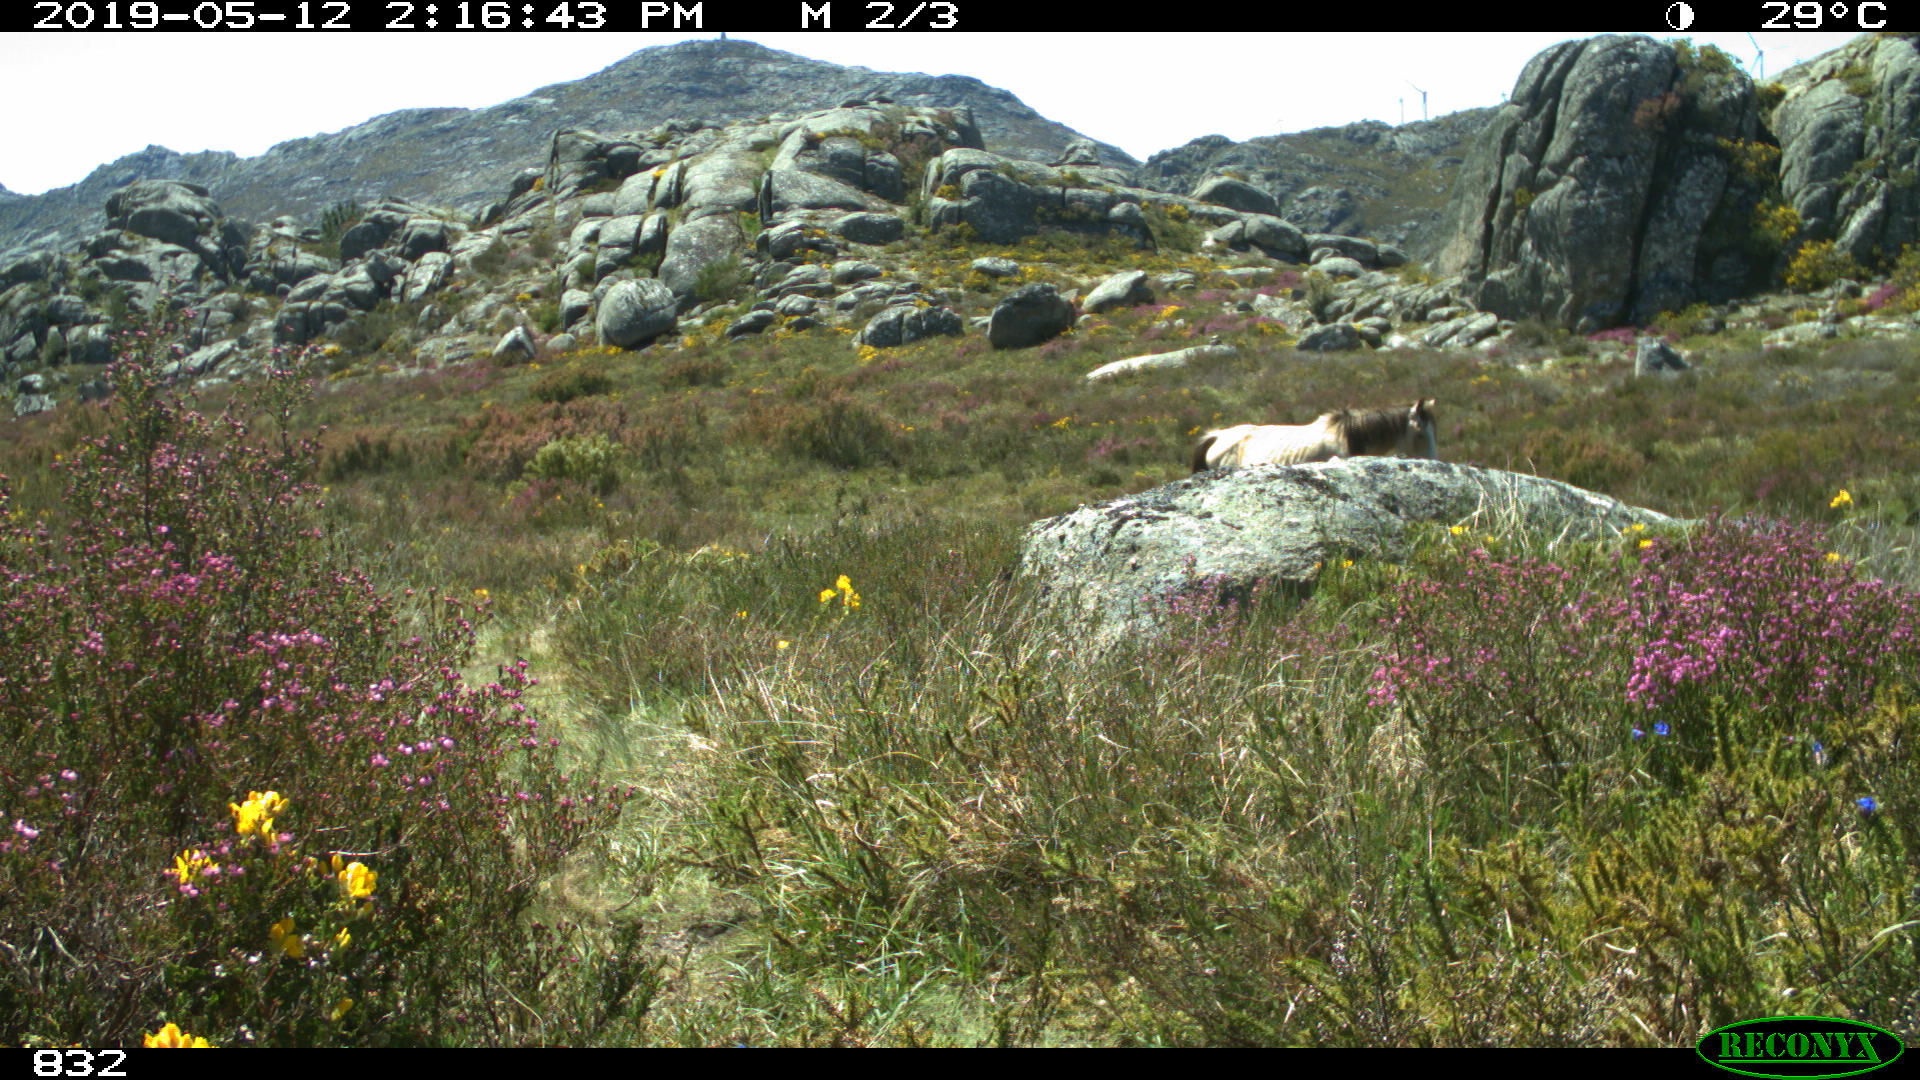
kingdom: Animalia
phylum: Chordata
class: Mammalia
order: Perissodactyla
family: Equidae
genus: Equus
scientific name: Equus caballus
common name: Horse
